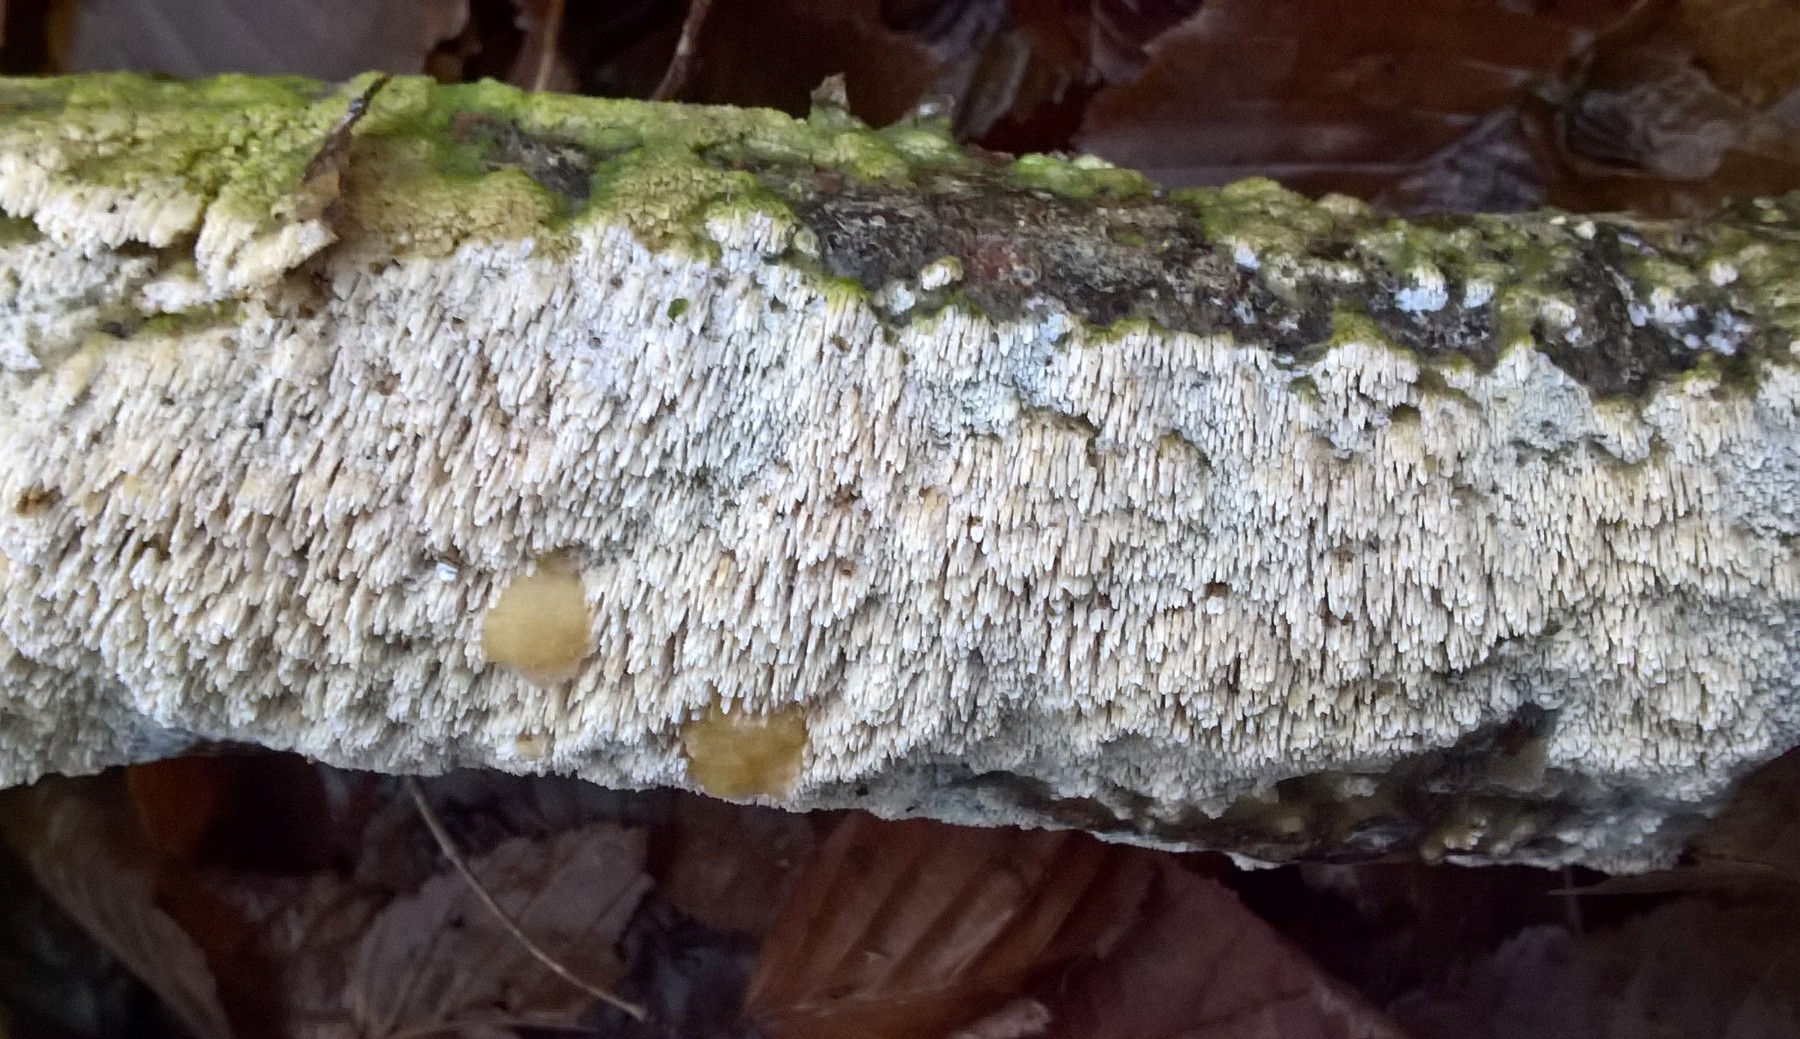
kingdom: Fungi
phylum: Basidiomycota
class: Agaricomycetes
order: Hymenochaetales
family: Schizoporaceae
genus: Xylodon
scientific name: Xylodon
